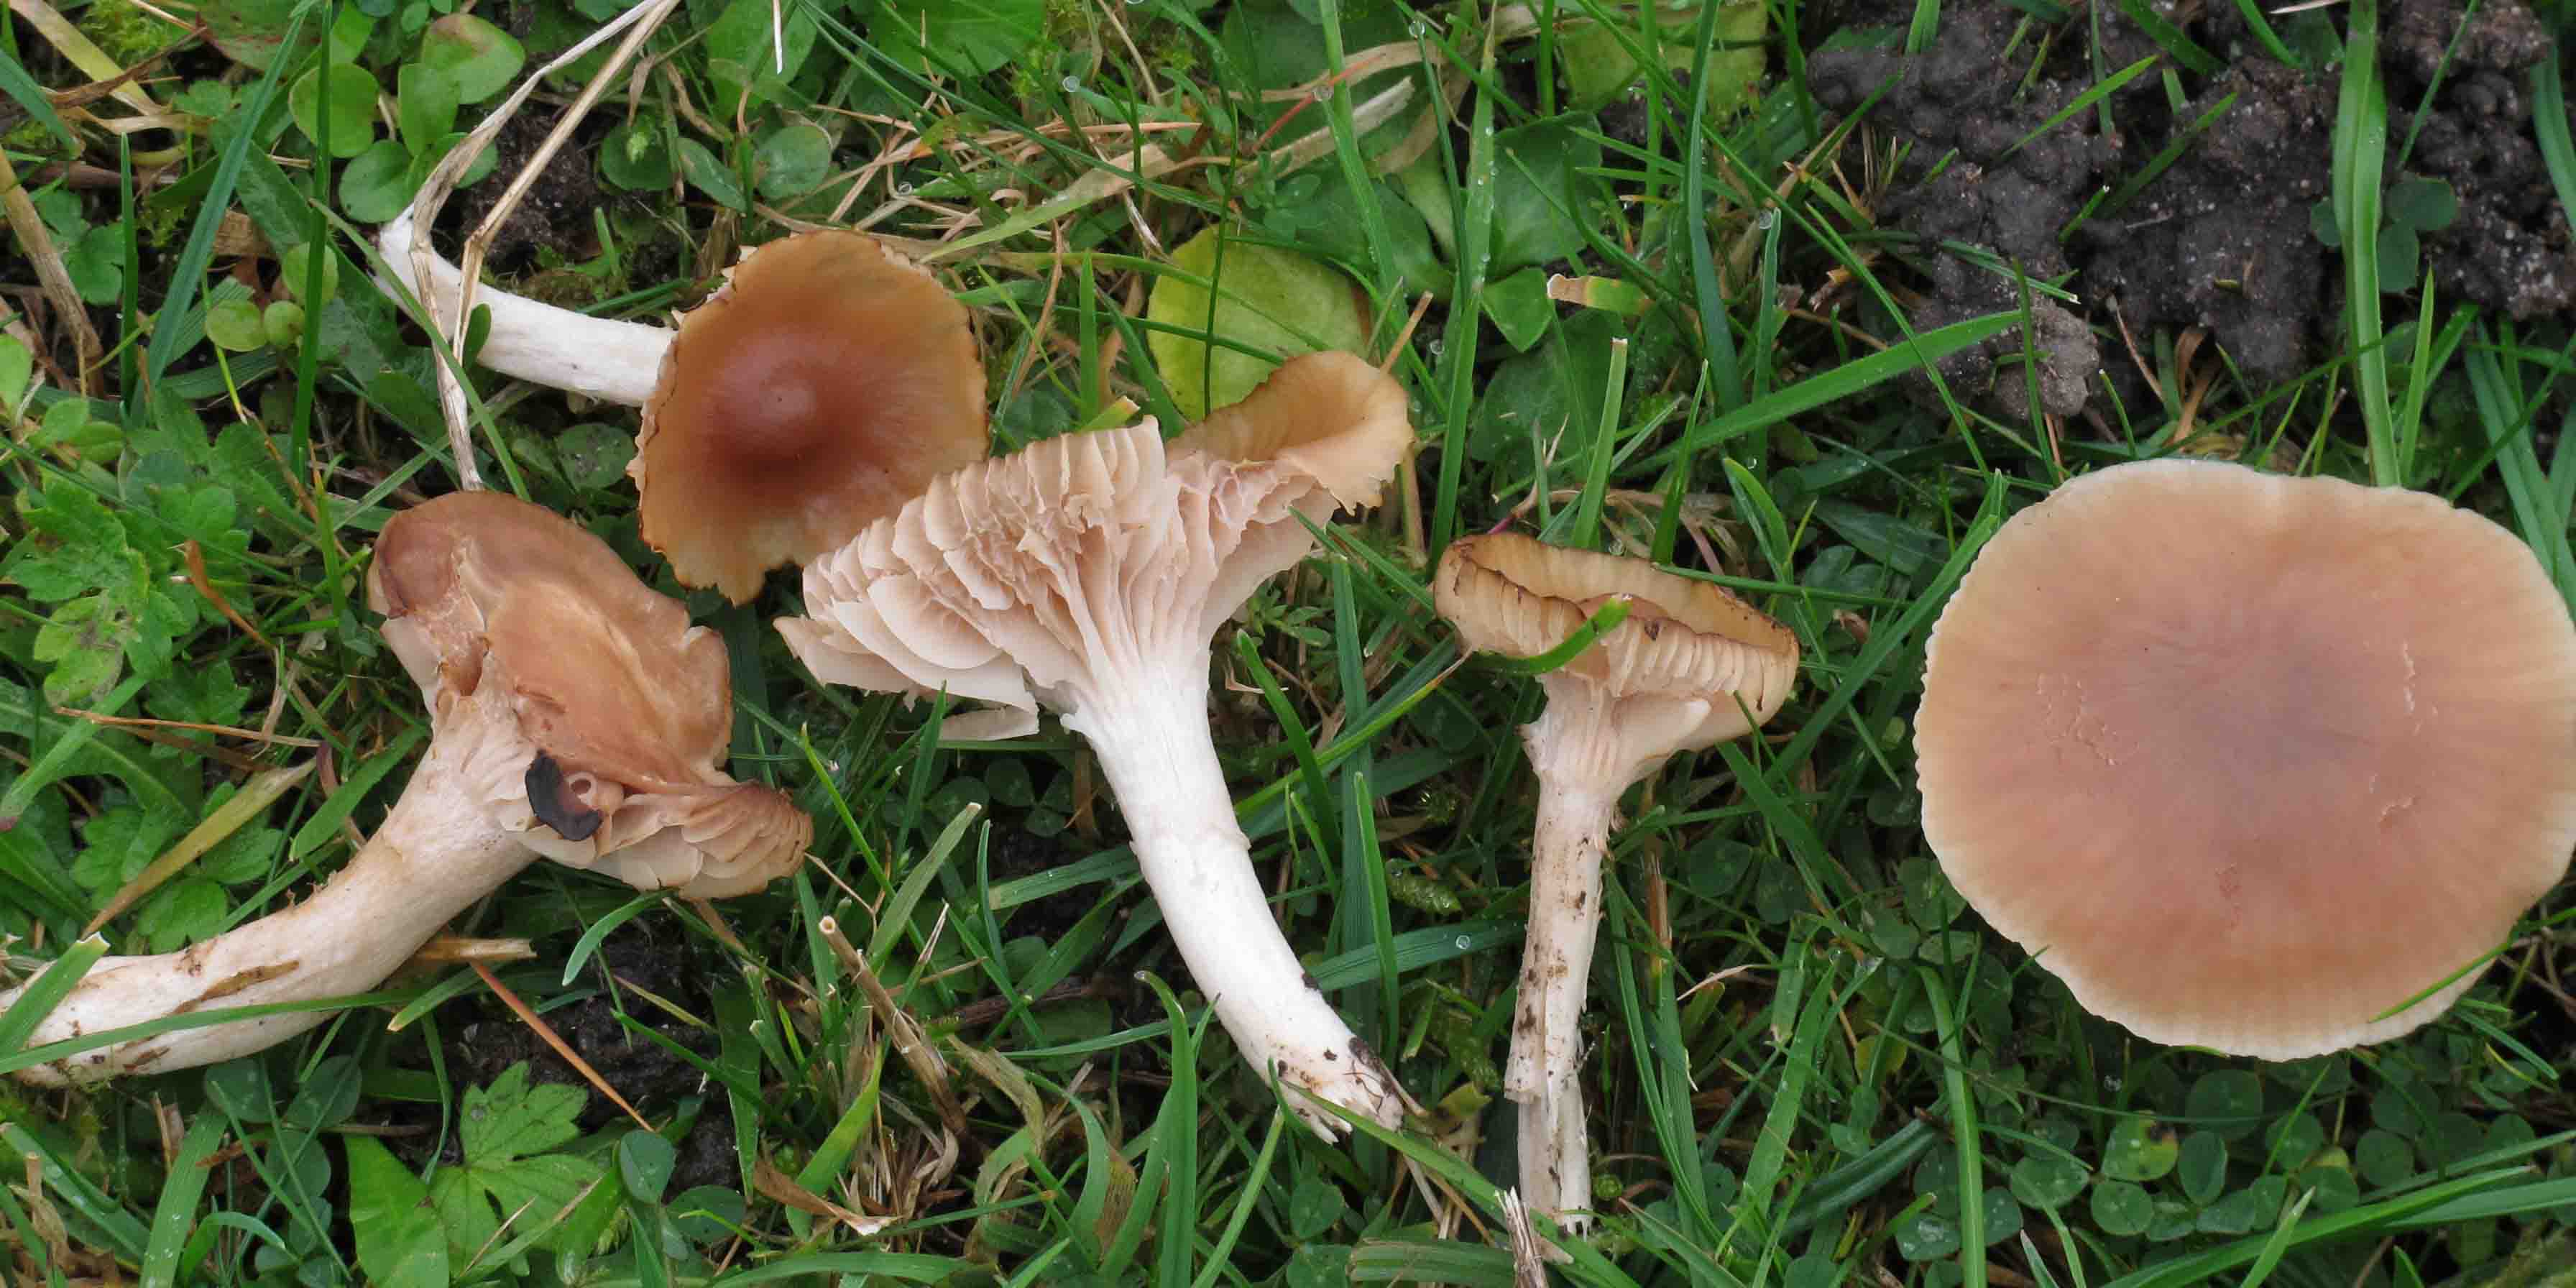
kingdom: Fungi
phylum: Basidiomycota
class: Agaricomycetes
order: Agaricales
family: Hygrophoraceae
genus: Cuphophyllus
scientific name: Cuphophyllus colemannianus
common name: rødbrun vokshat
